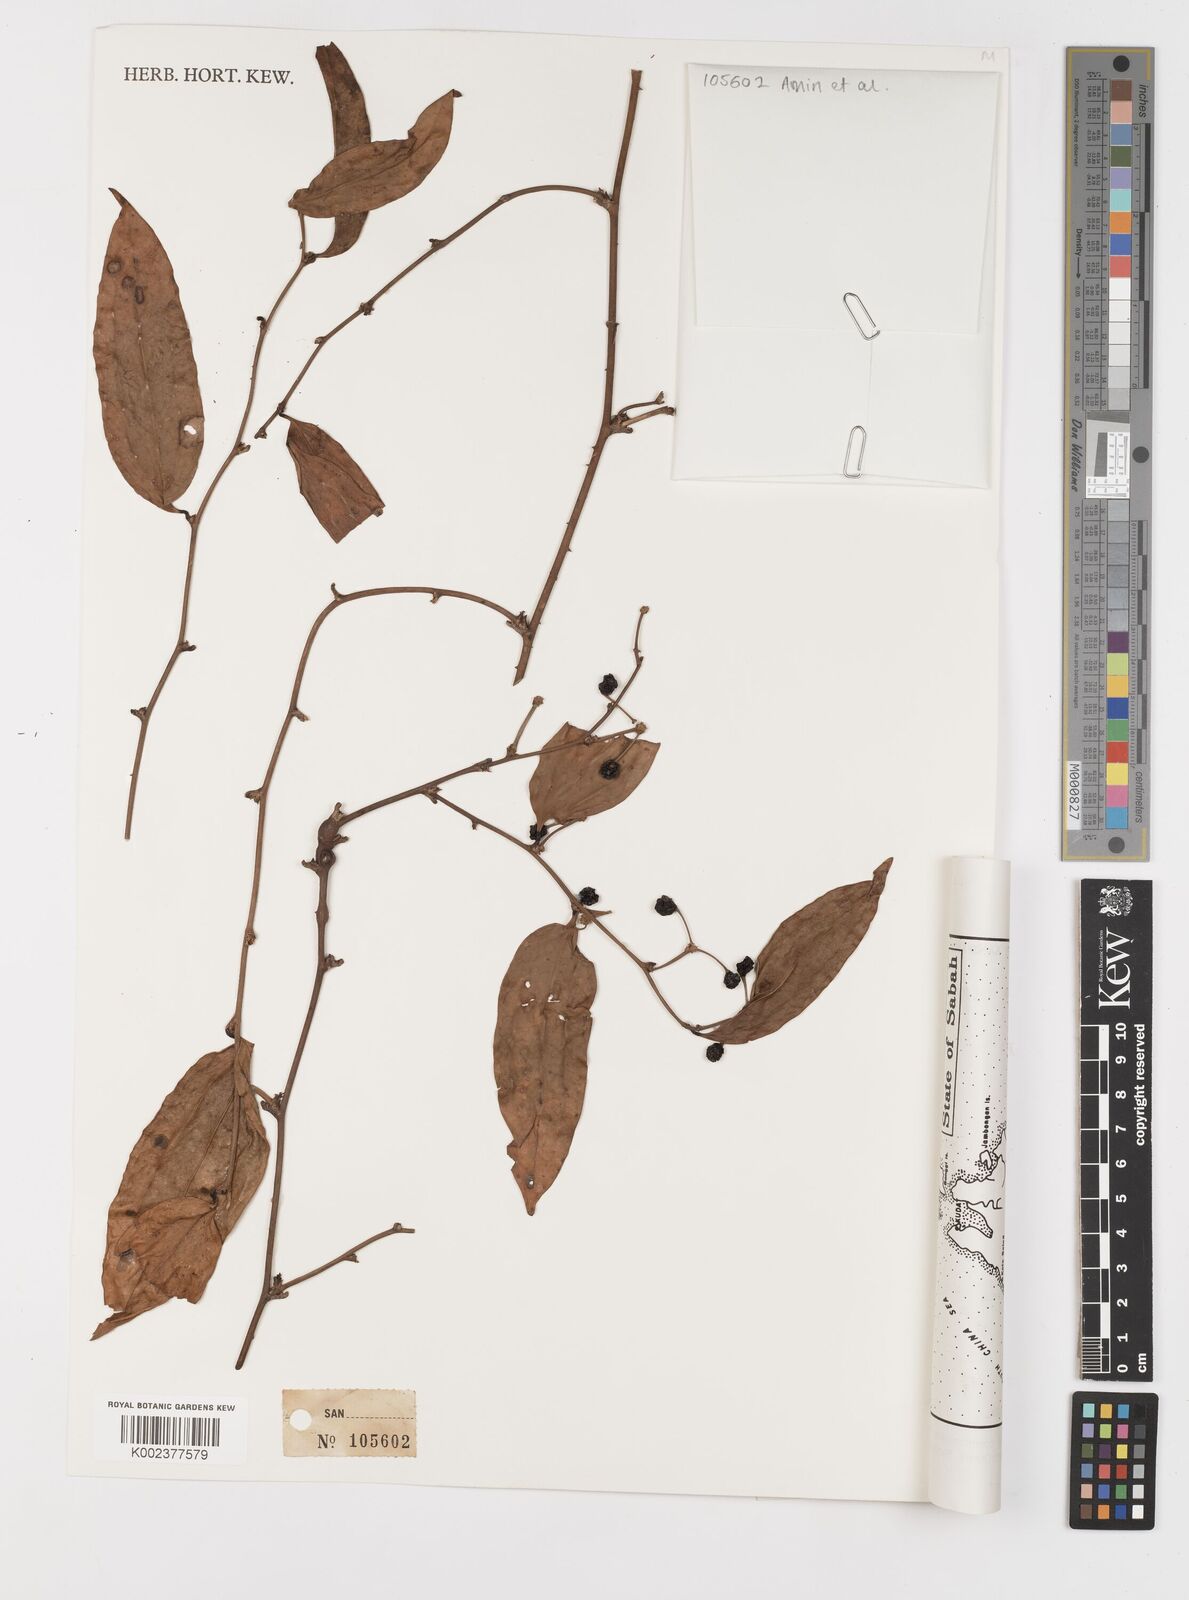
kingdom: Plantae
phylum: Tracheophyta
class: Liliopsida
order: Liliales
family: Smilacaceae
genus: Smilax
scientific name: Smilax laevis
